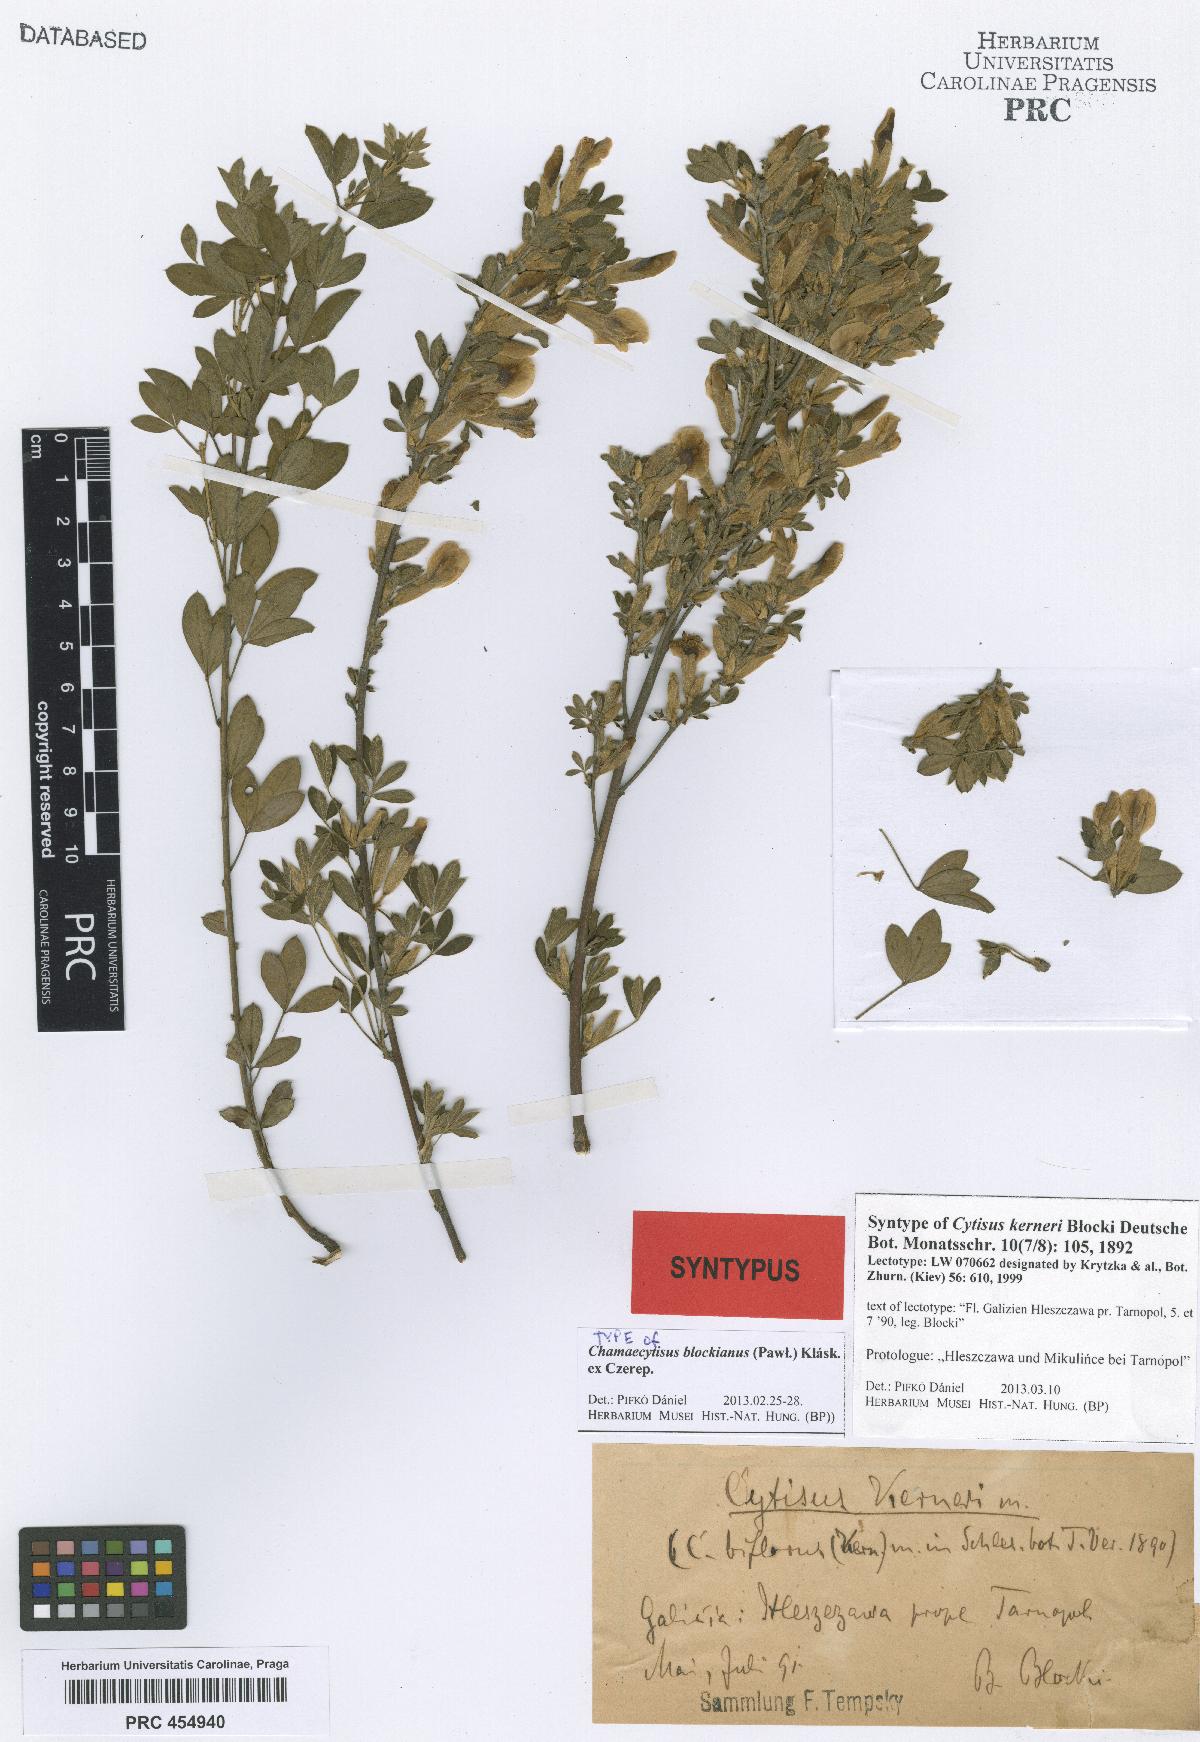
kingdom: Plantae
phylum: Tracheophyta
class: Magnoliopsida
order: Fabales
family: Fabaceae
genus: Cytisus
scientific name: Cytisus kerneri
